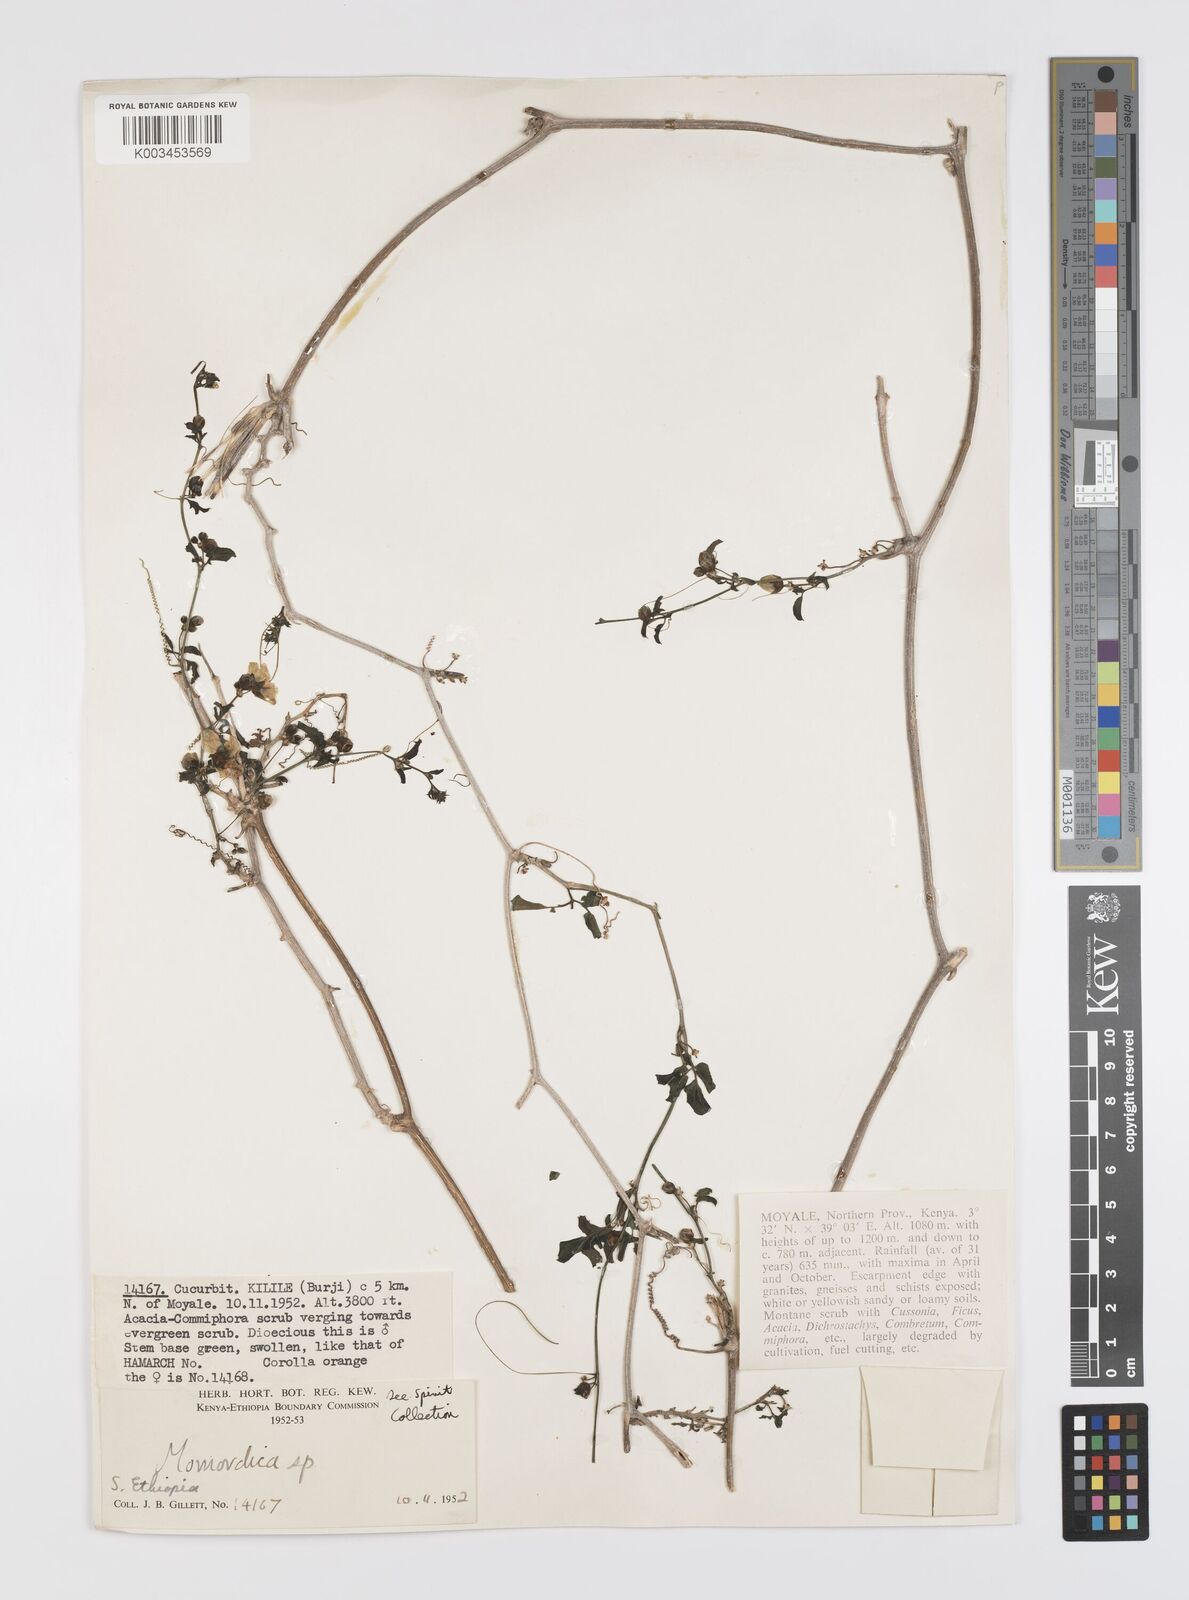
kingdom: Plantae
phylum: Tracheophyta
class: Magnoliopsida
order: Cucurbitales
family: Cucurbitaceae
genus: Momordica
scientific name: Momordica rostrata
